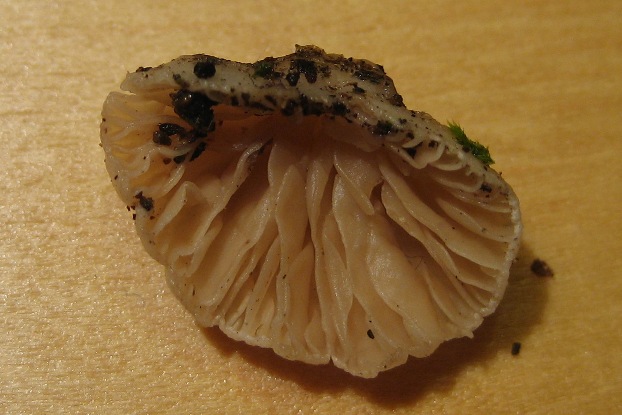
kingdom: Fungi
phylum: Basidiomycota
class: Agaricomycetes
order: Agaricales
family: Crepidotaceae
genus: Crepidotus
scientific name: Crepidotus cesatii
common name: almindelig muslingesvamp
